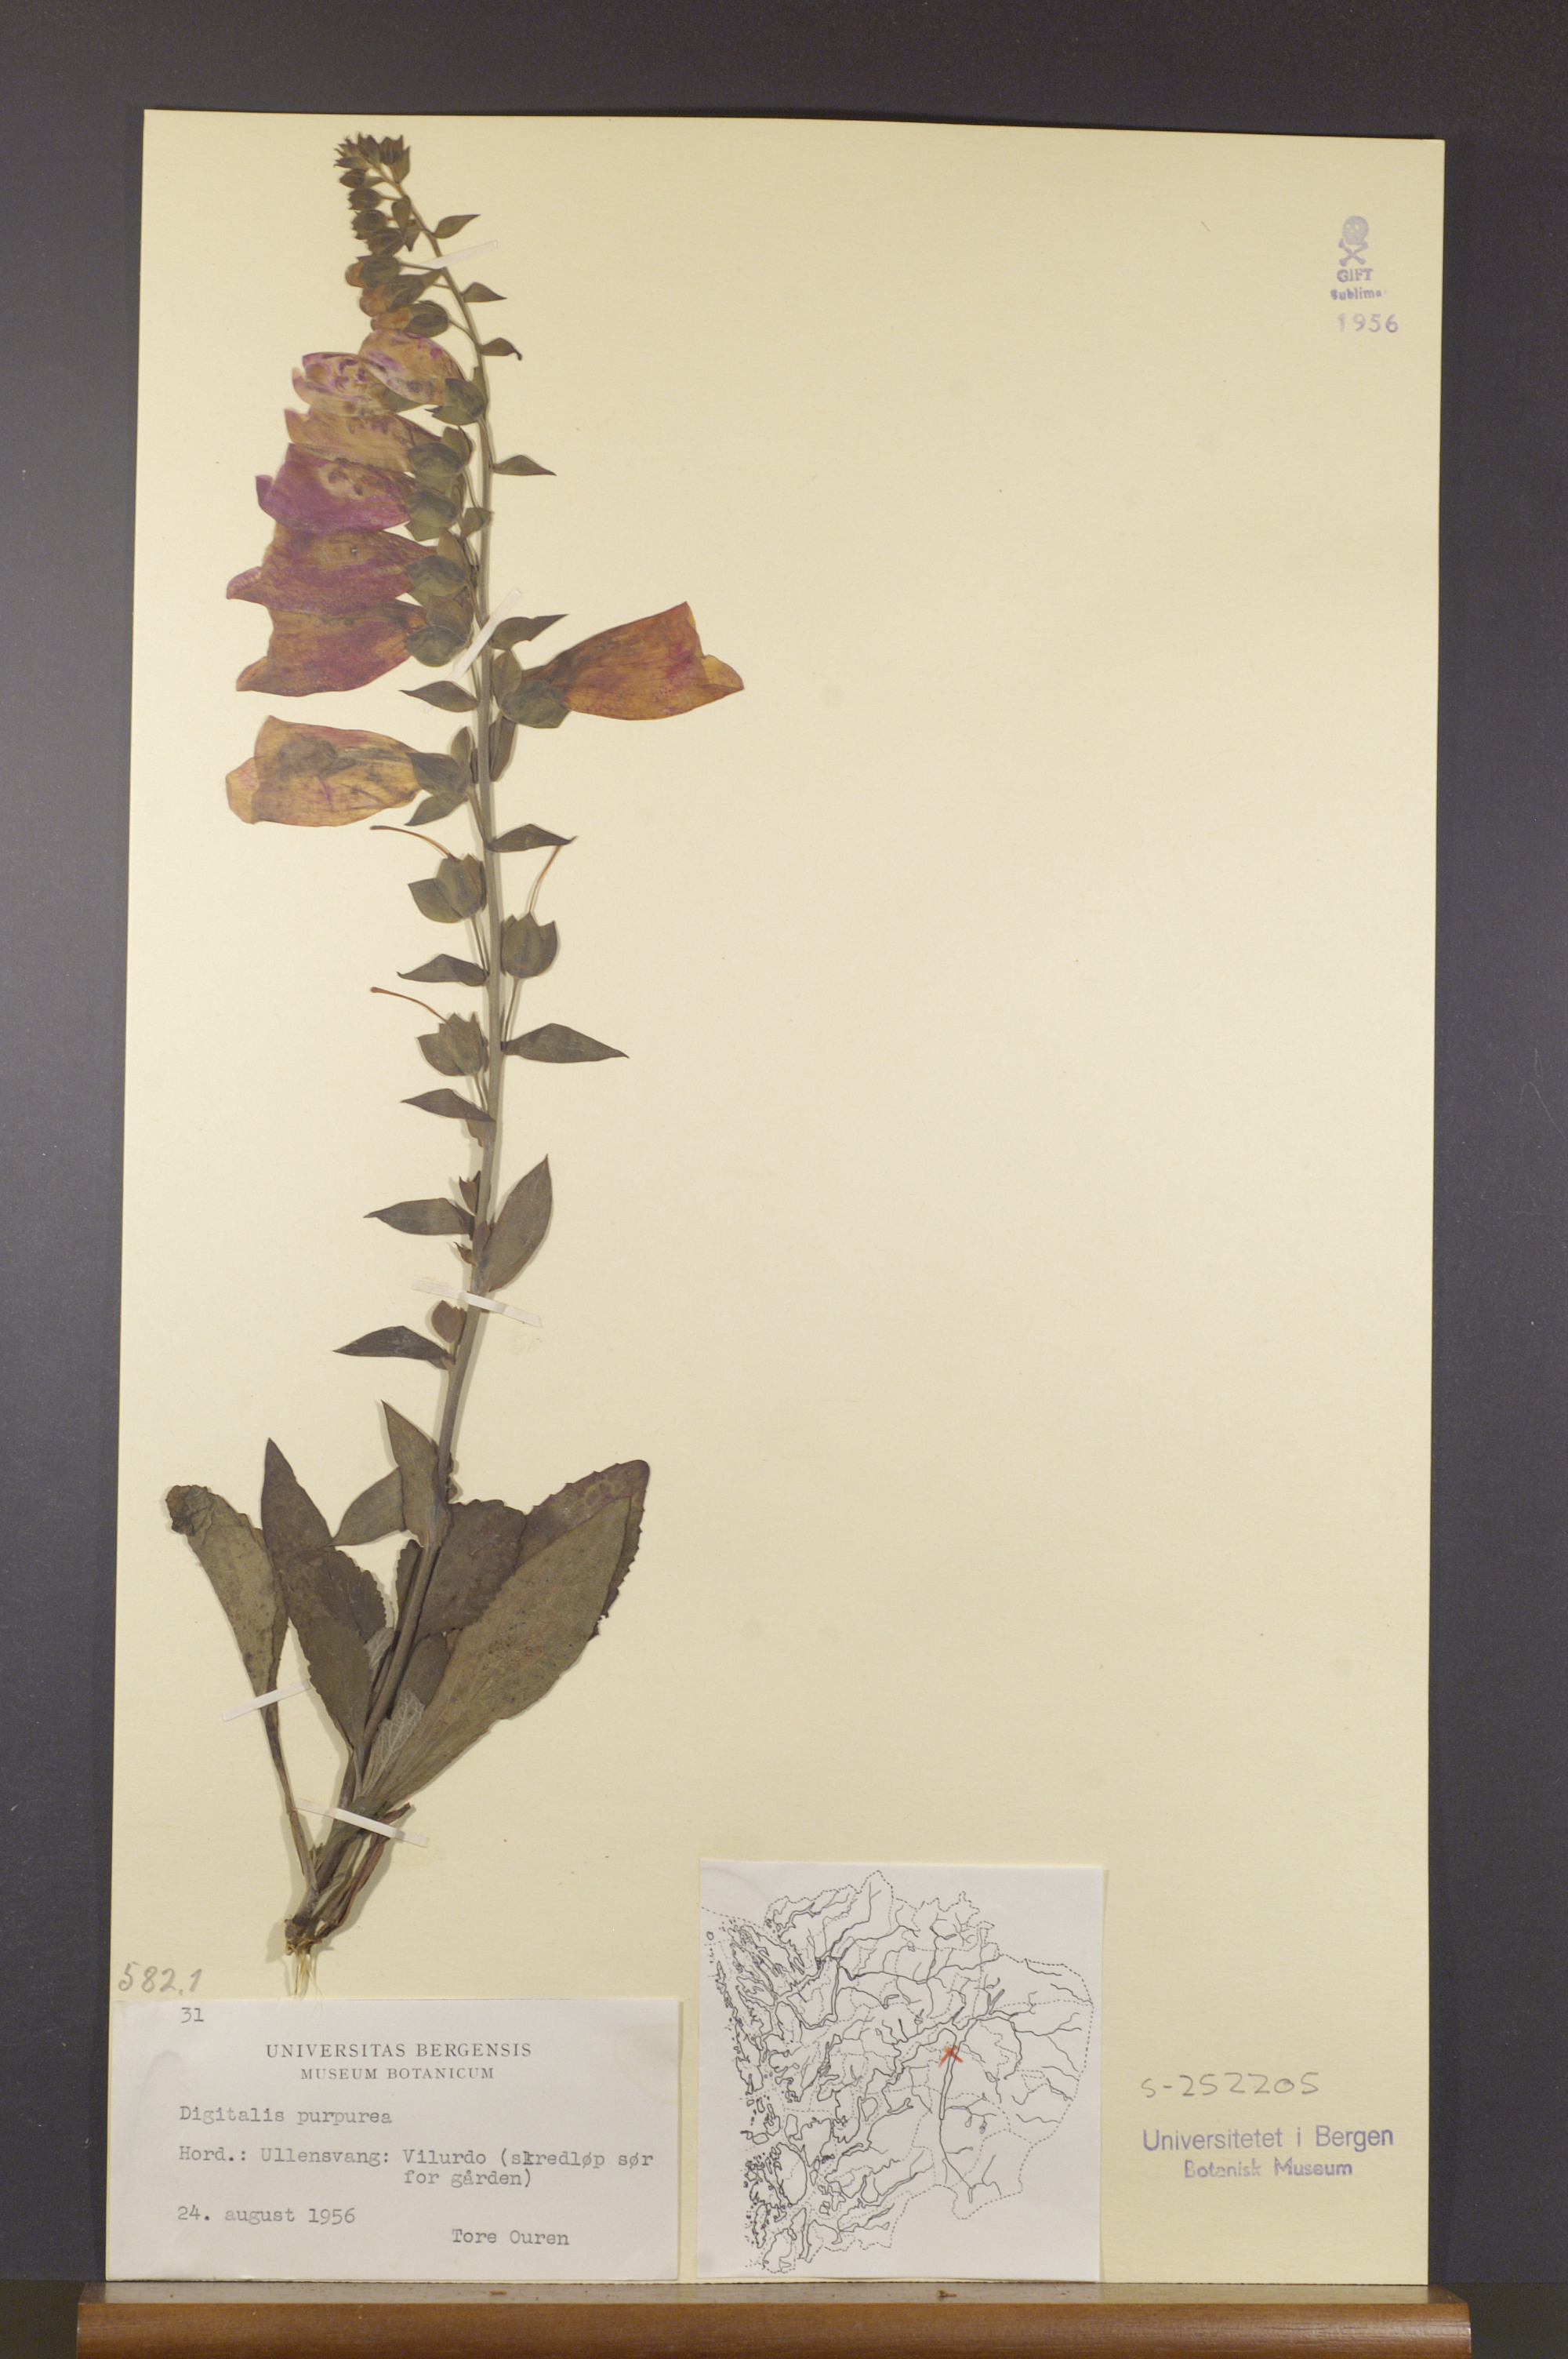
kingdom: Plantae
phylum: Tracheophyta
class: Magnoliopsida
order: Lamiales
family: Plantaginaceae
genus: Digitalis
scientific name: Digitalis purpurea
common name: Foxglove
